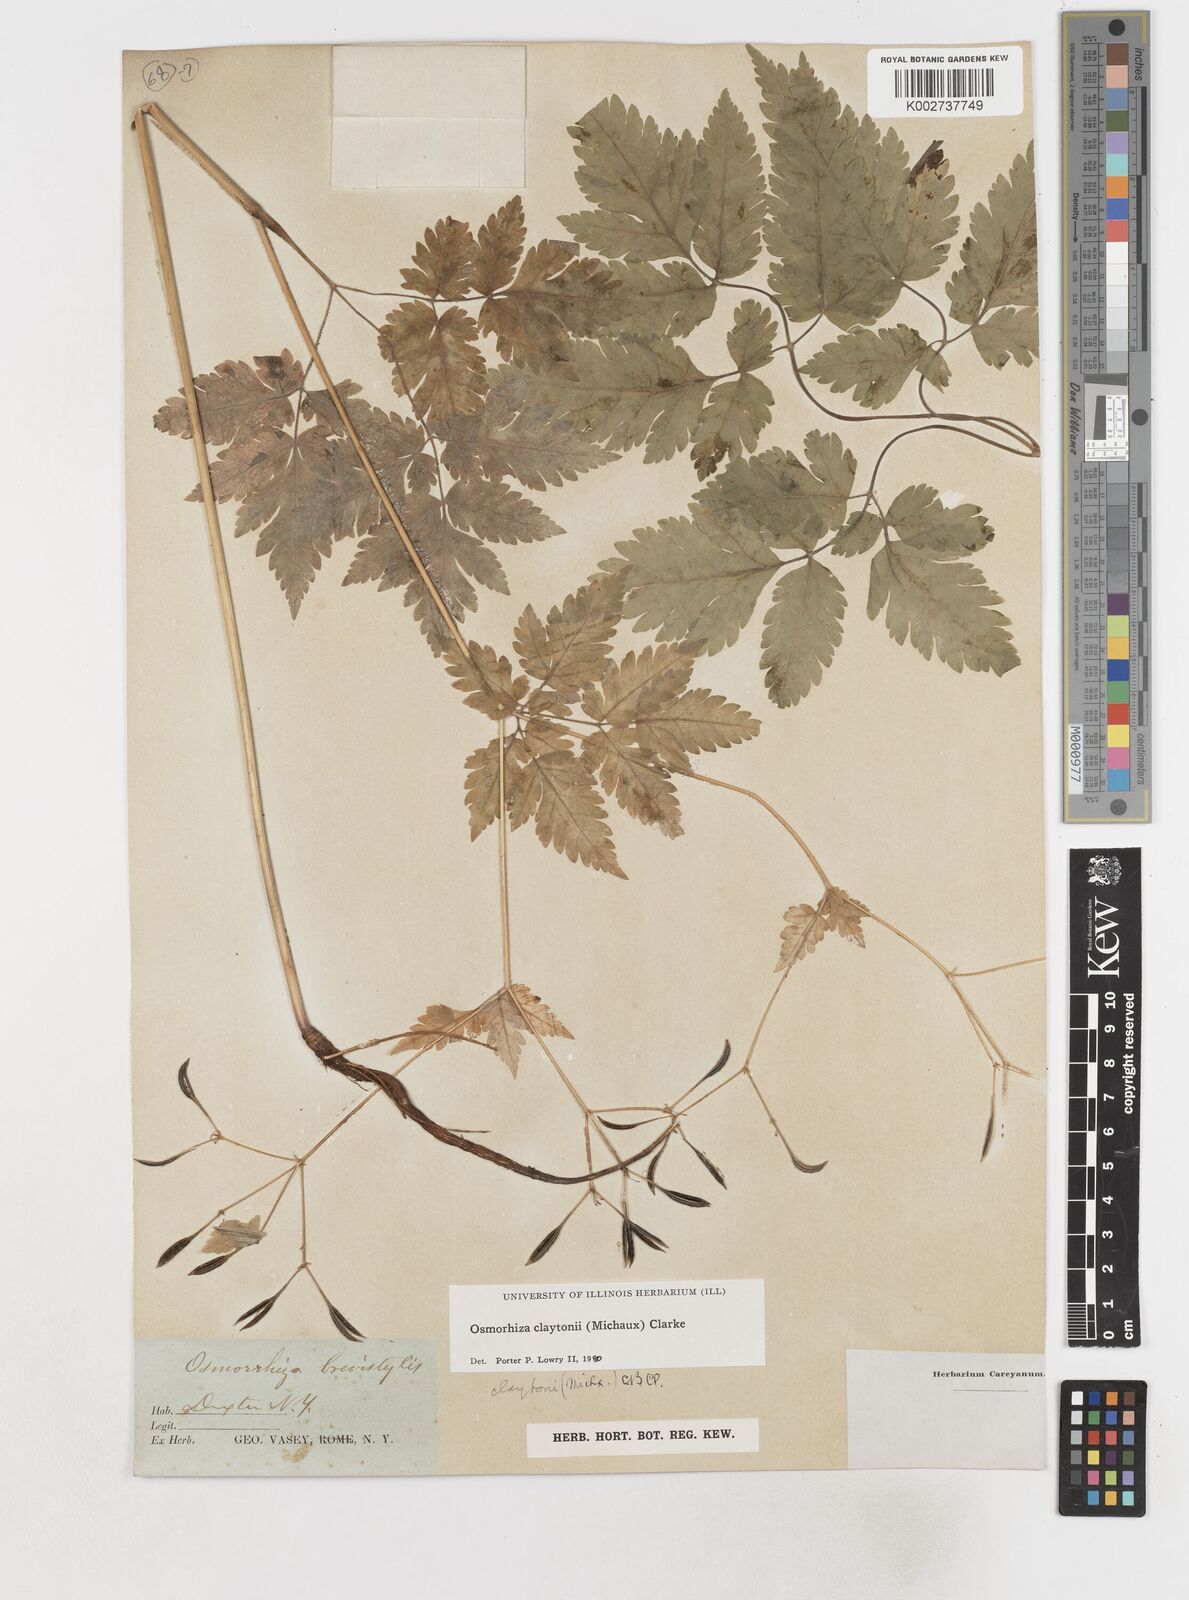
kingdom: Plantae
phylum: Tracheophyta
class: Magnoliopsida
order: Apiales
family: Apiaceae
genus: Osmorhiza
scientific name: Osmorhiza claytonii
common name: Hairy sweet cicely
